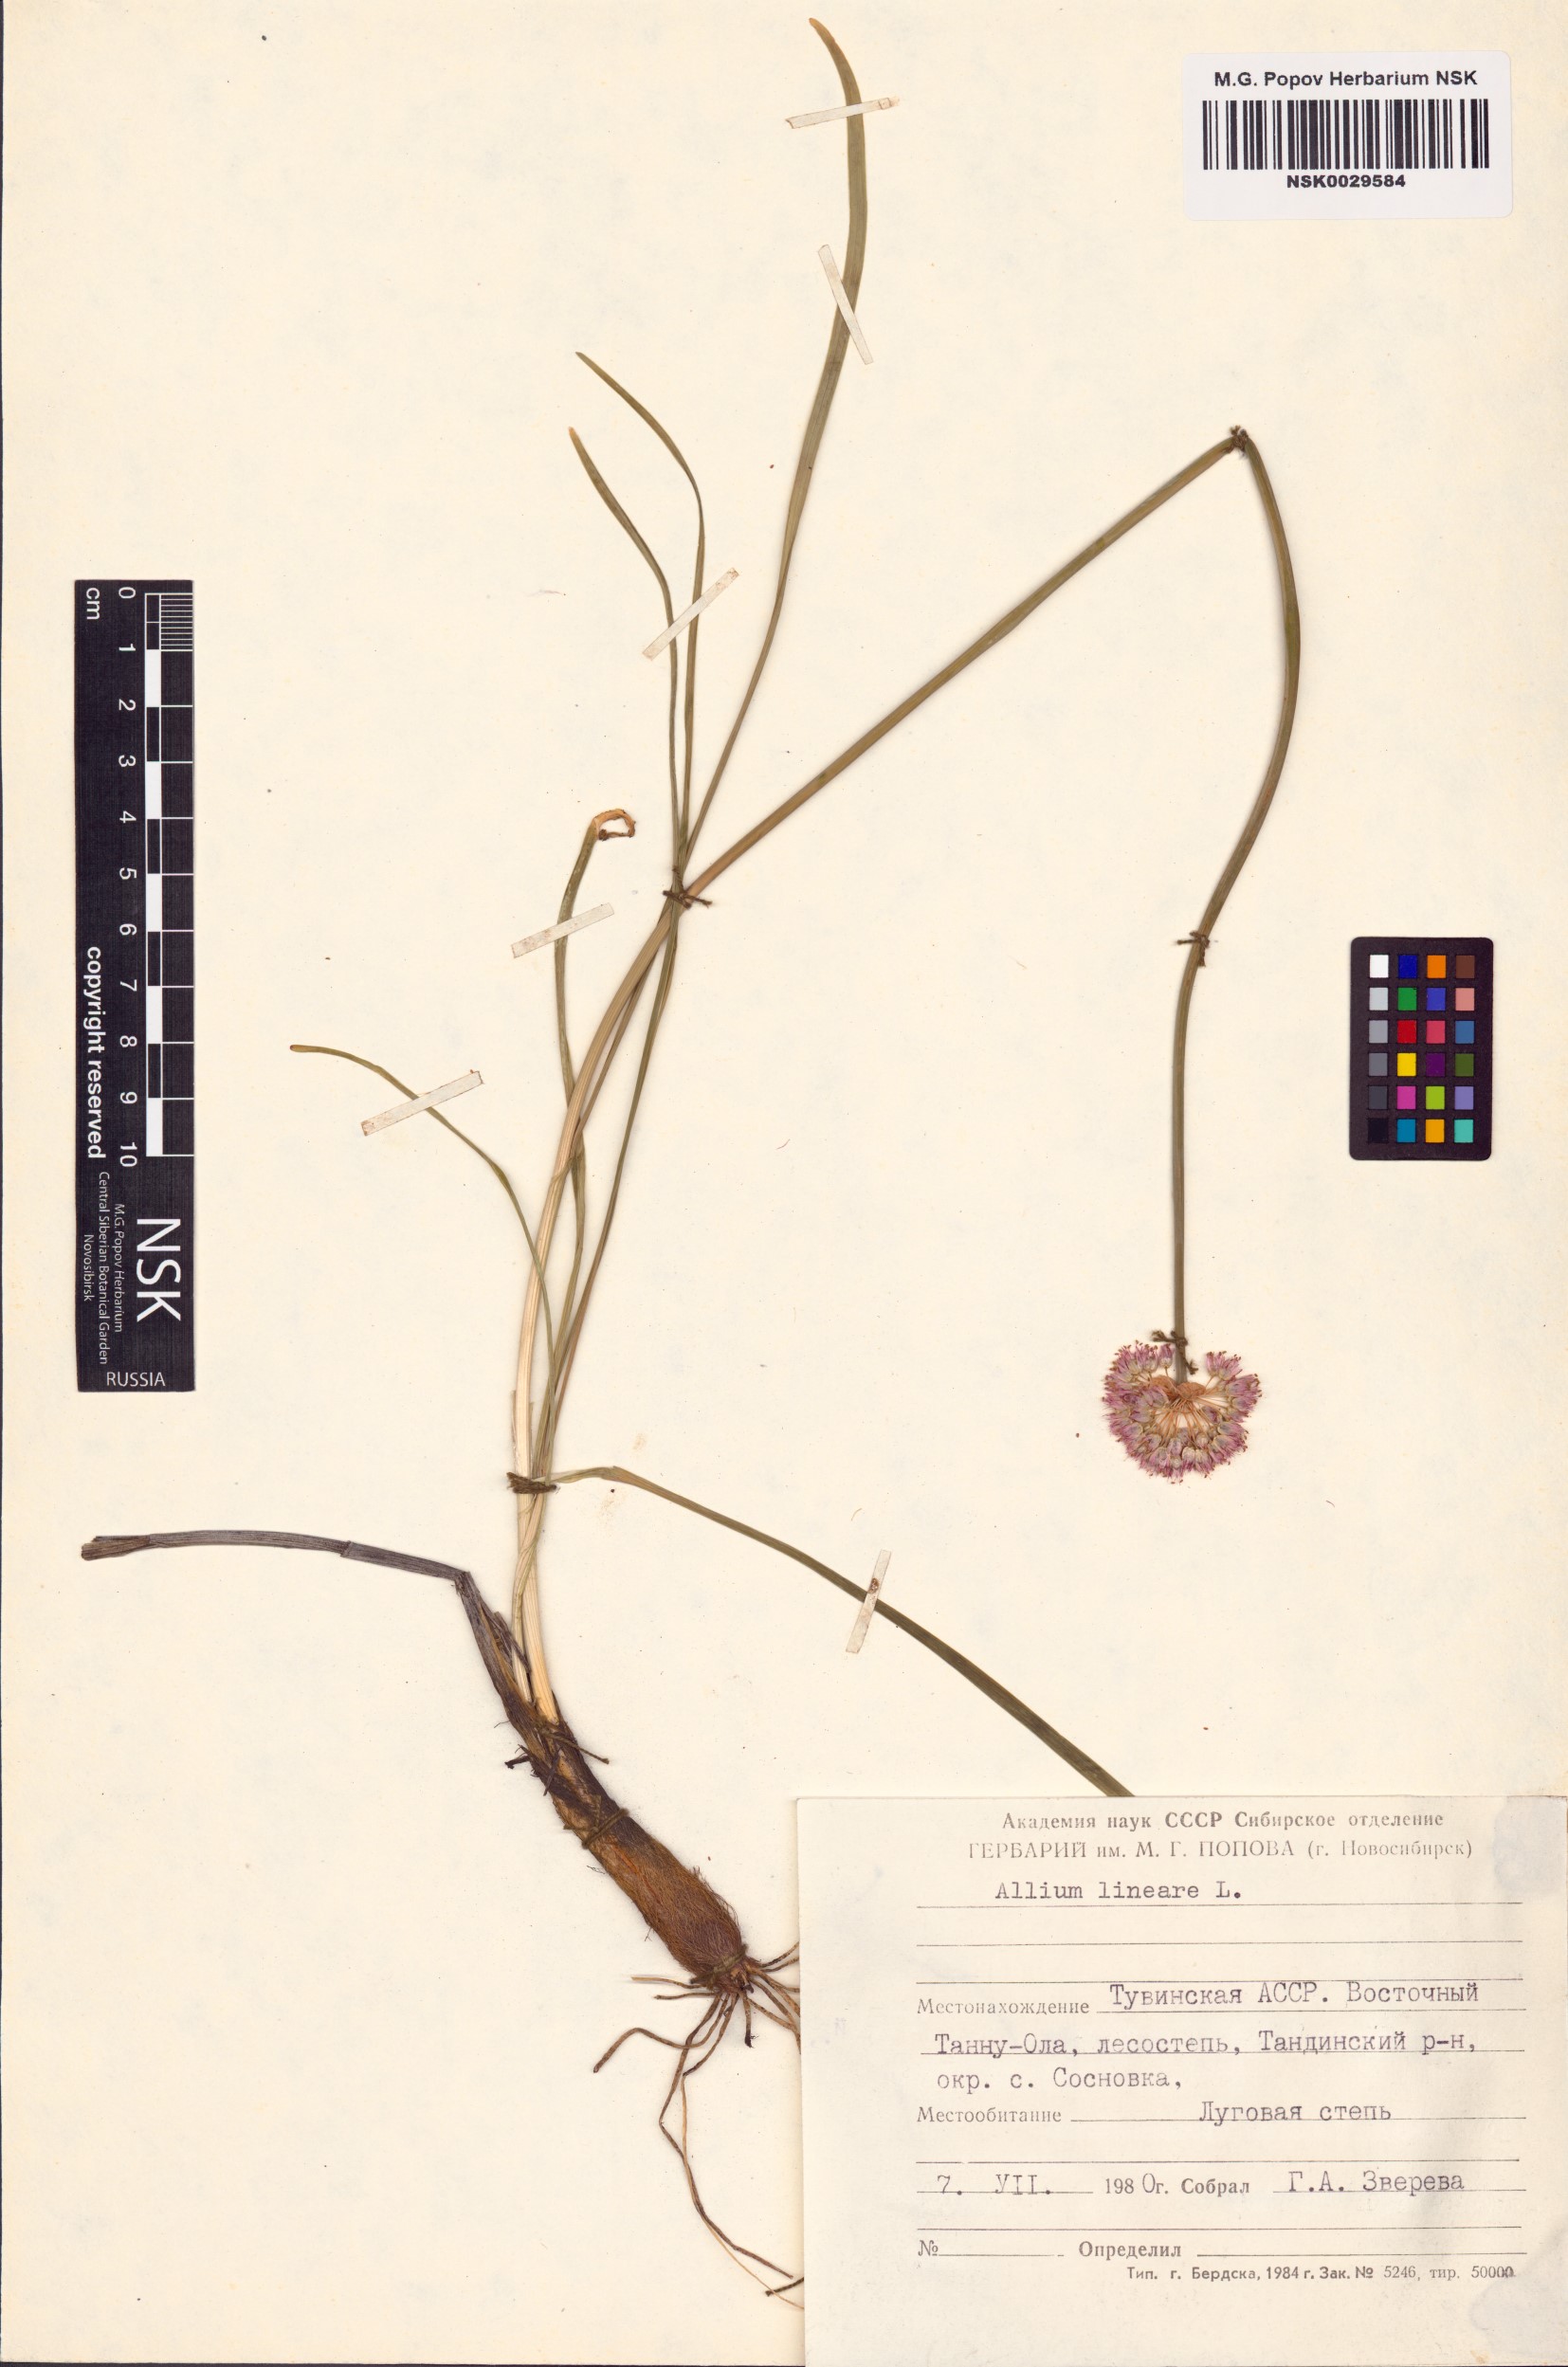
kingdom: Plantae
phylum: Tracheophyta
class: Liliopsida
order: Asparagales
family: Amaryllidaceae
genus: Allium
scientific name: Allium lineare
